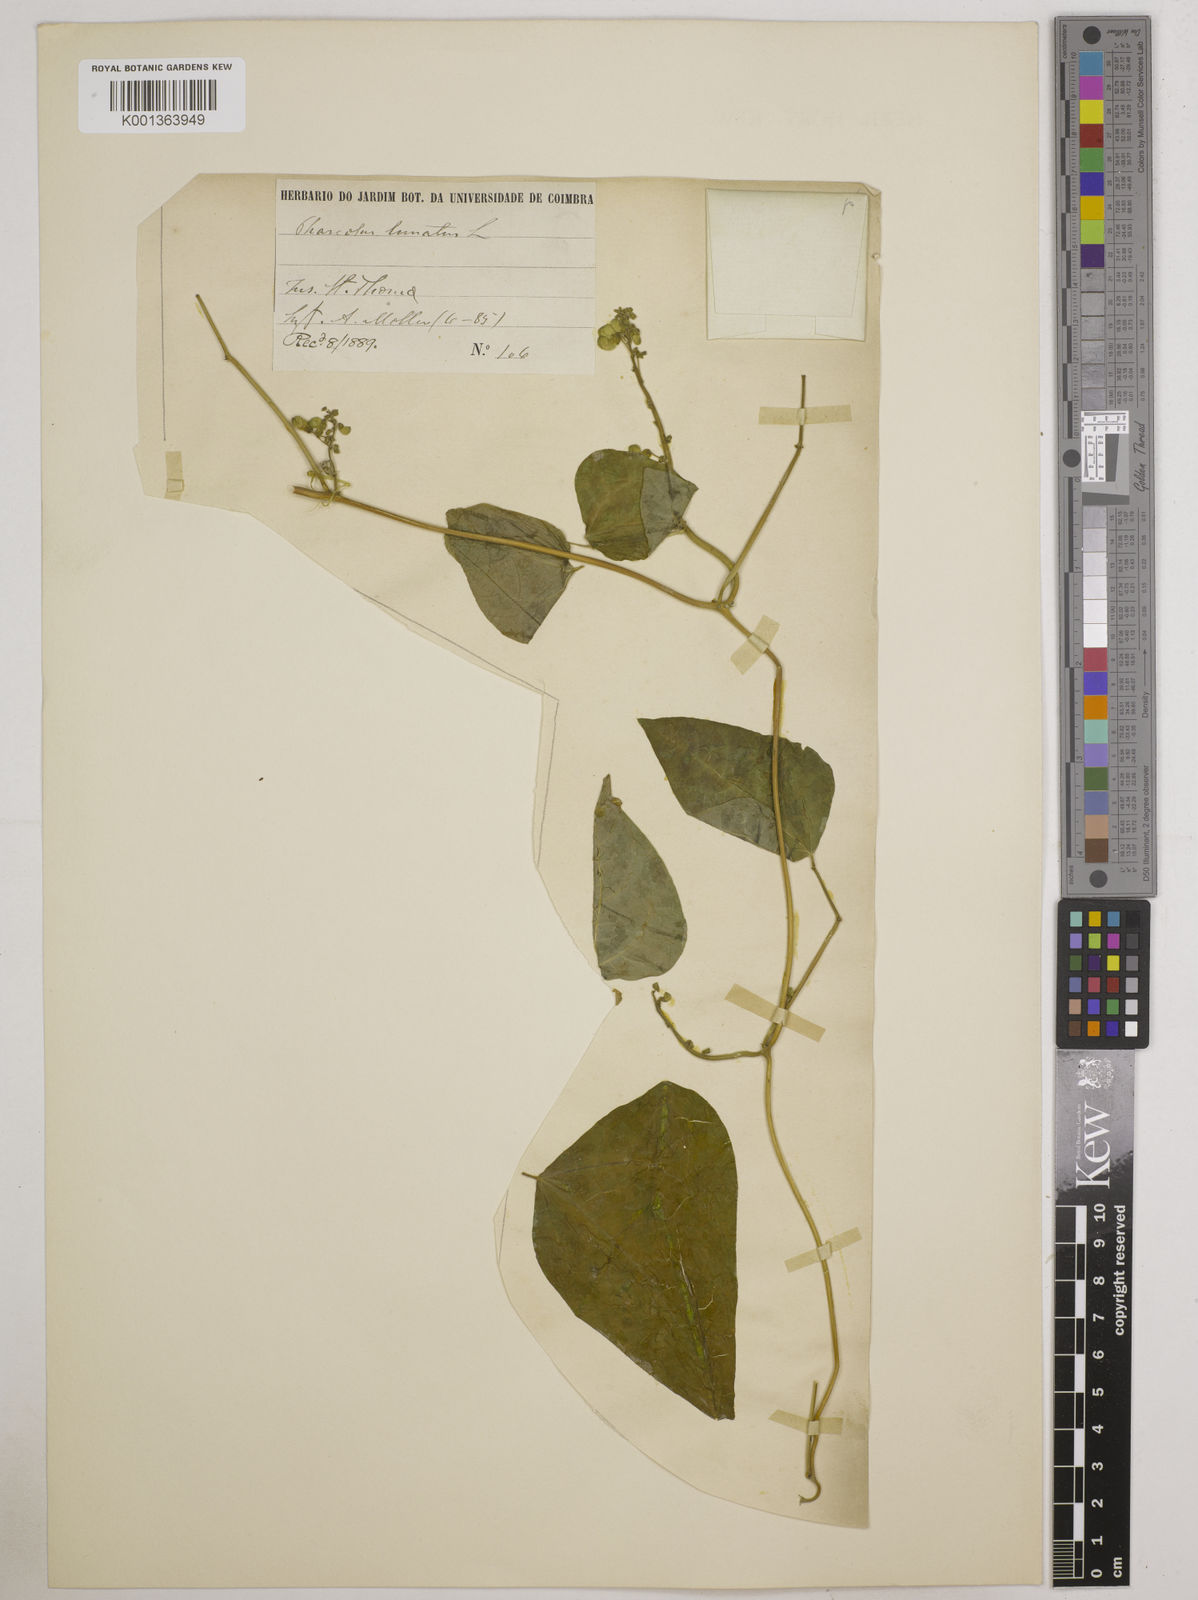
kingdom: Plantae
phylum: Tracheophyta
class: Magnoliopsida
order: Fabales
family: Fabaceae
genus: Phaseolus
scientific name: Phaseolus lunatus
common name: Sieva bean
